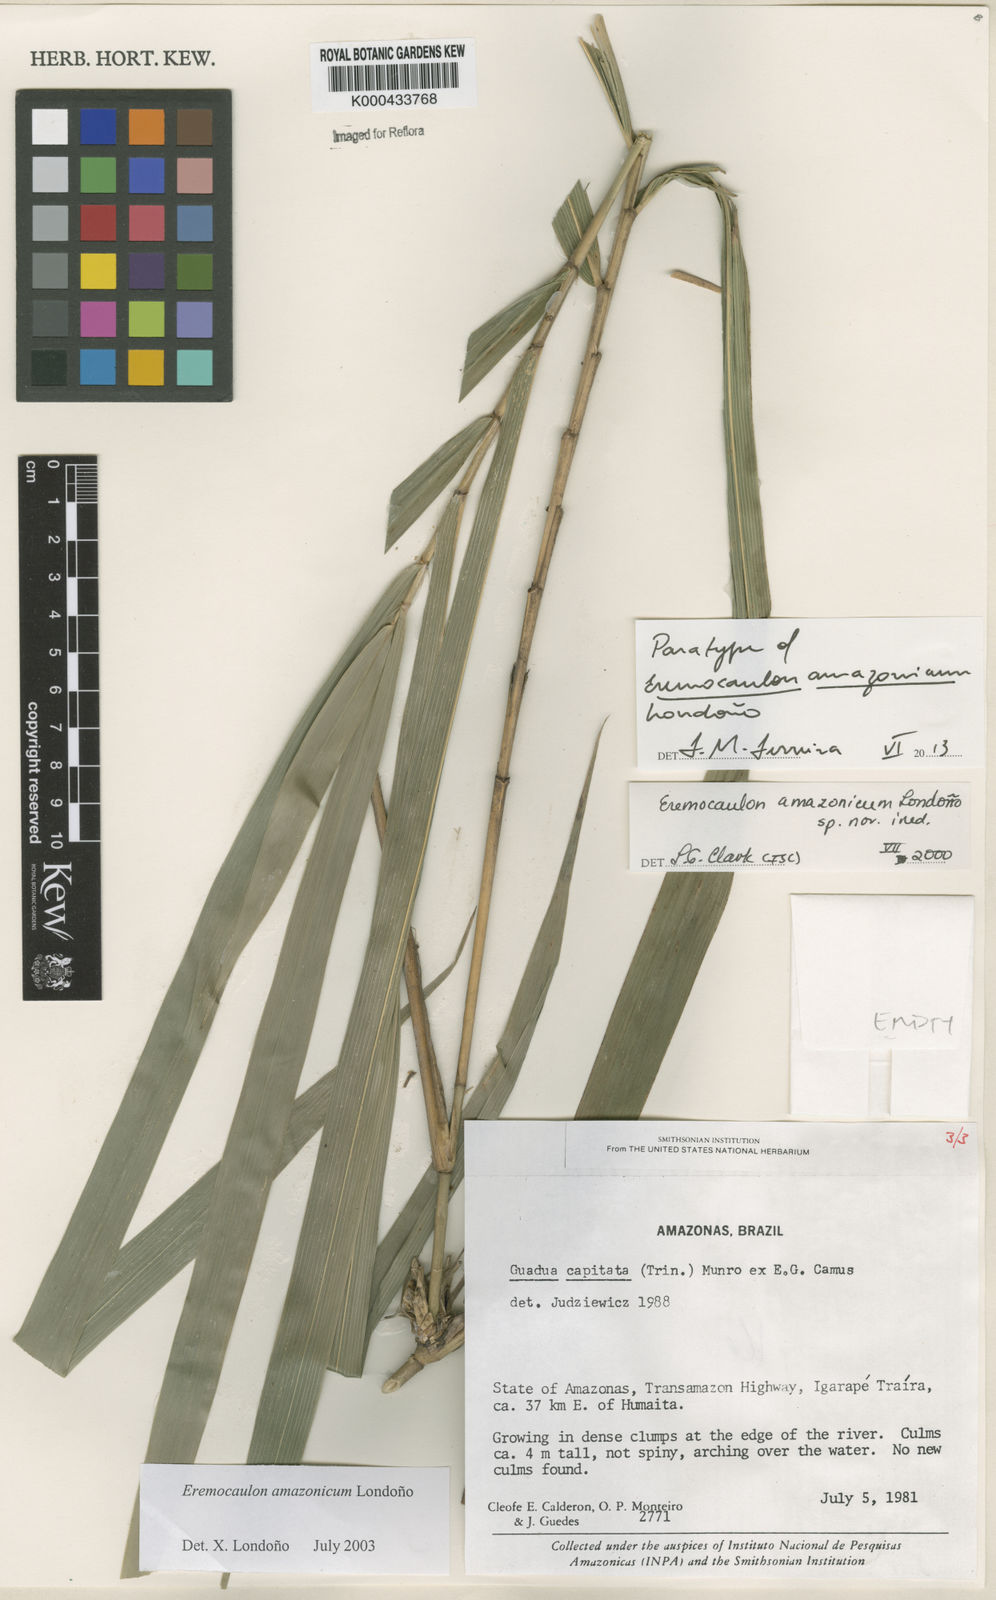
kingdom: Plantae
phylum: Tracheophyta
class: Liliopsida
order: Poales
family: Poaceae
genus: Eremocaulon
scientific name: Eremocaulon
